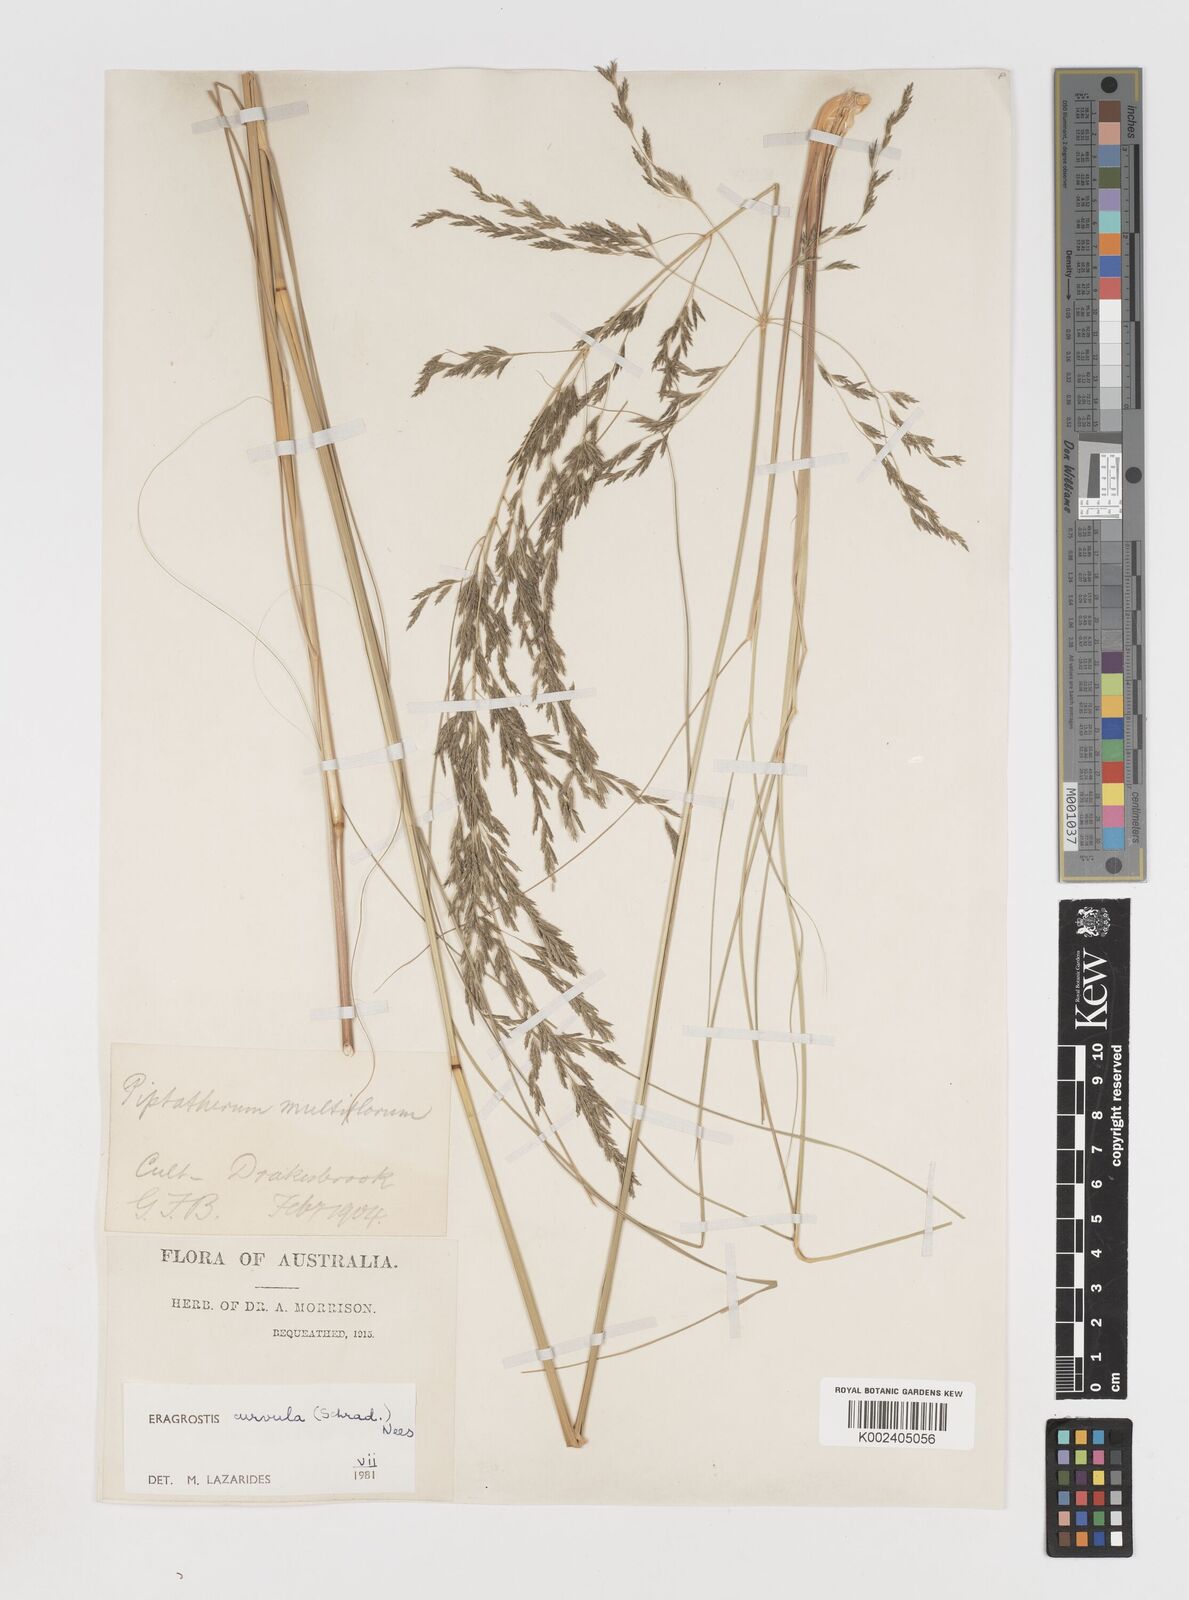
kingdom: Plantae
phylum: Tracheophyta
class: Liliopsida
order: Poales
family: Poaceae
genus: Eragrostis
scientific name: Eragrostis curvula
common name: African love-grass
